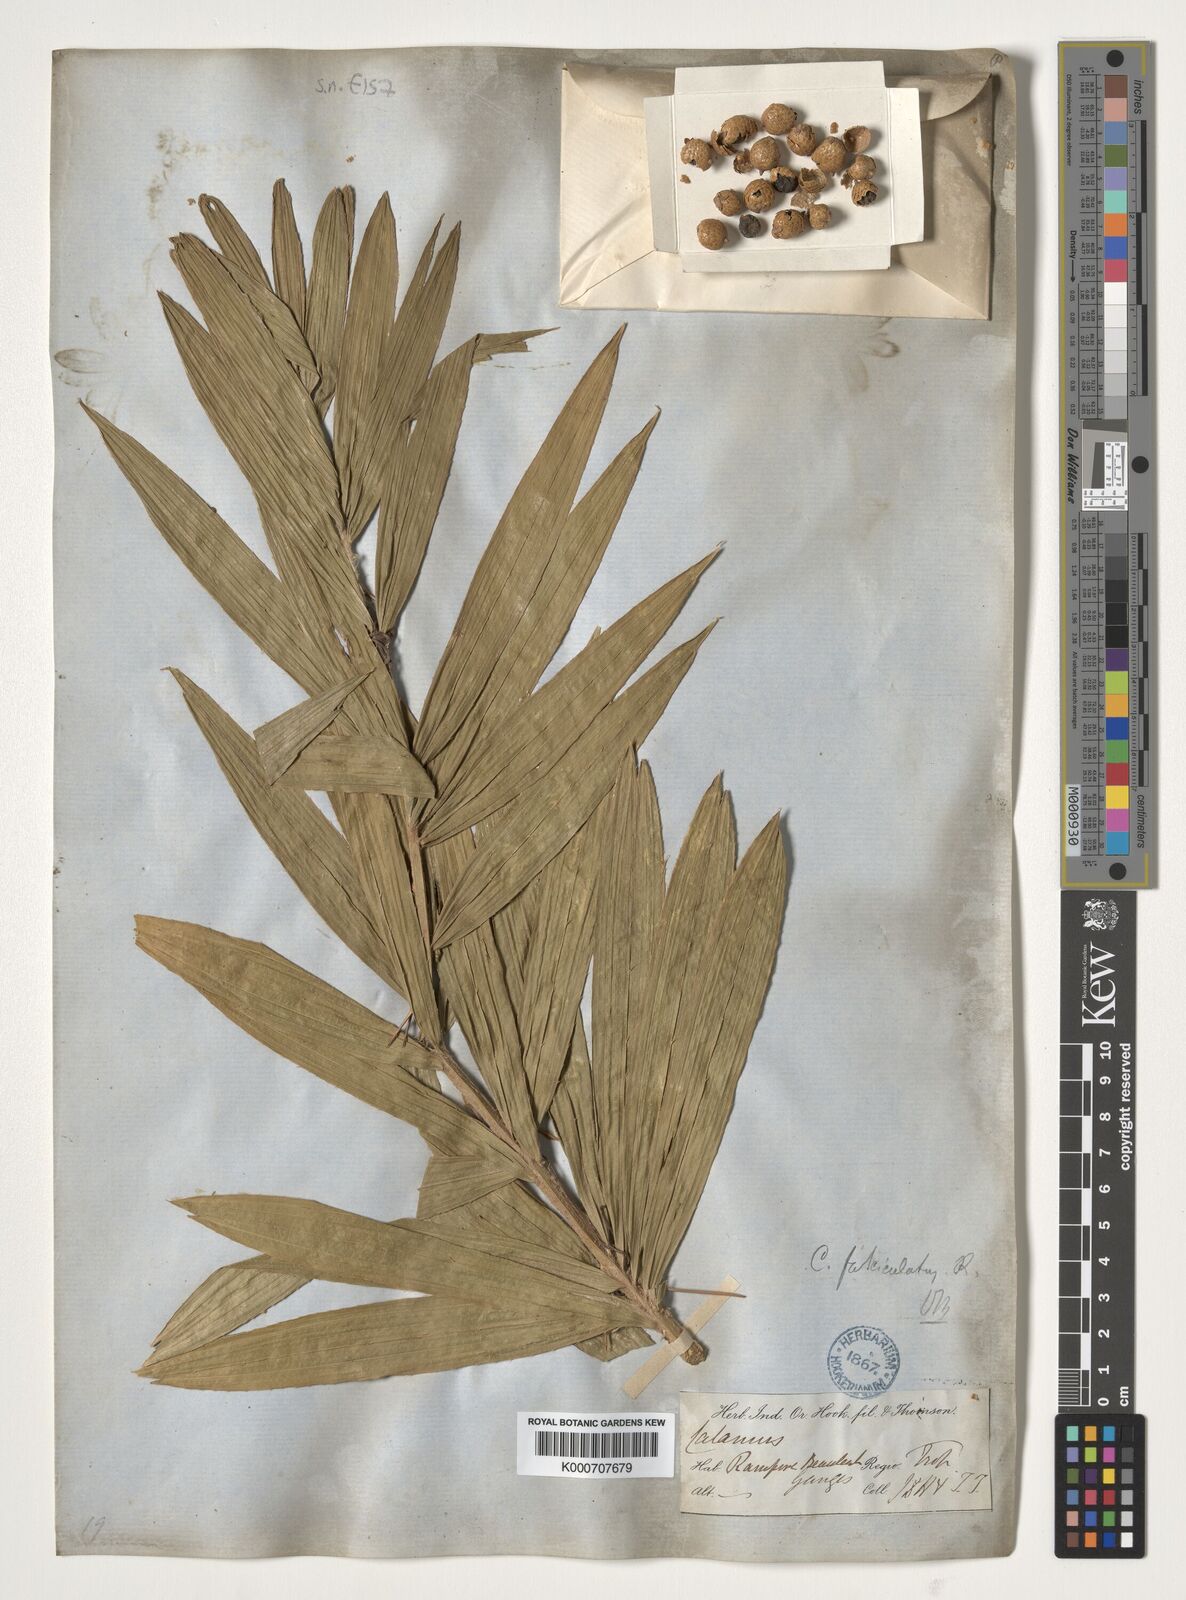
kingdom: Plantae
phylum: Tracheophyta
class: Liliopsida
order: Arecales
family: Arecaceae
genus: Calamus
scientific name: Calamus viminalis
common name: Osier-like rattan palm
